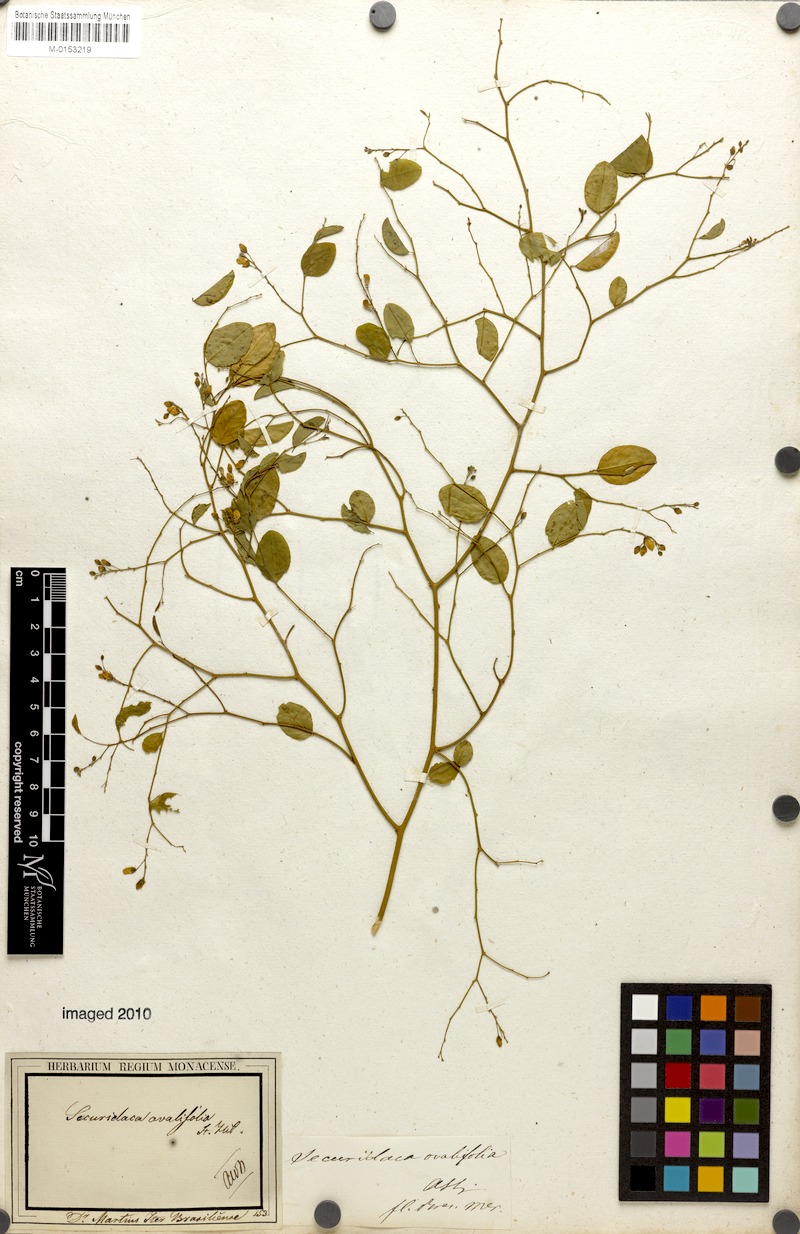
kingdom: Plantae
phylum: Tracheophyta
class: Magnoliopsida
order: Fabales
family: Polygalaceae
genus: Securidaca
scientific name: Securidaca ovalifolia
